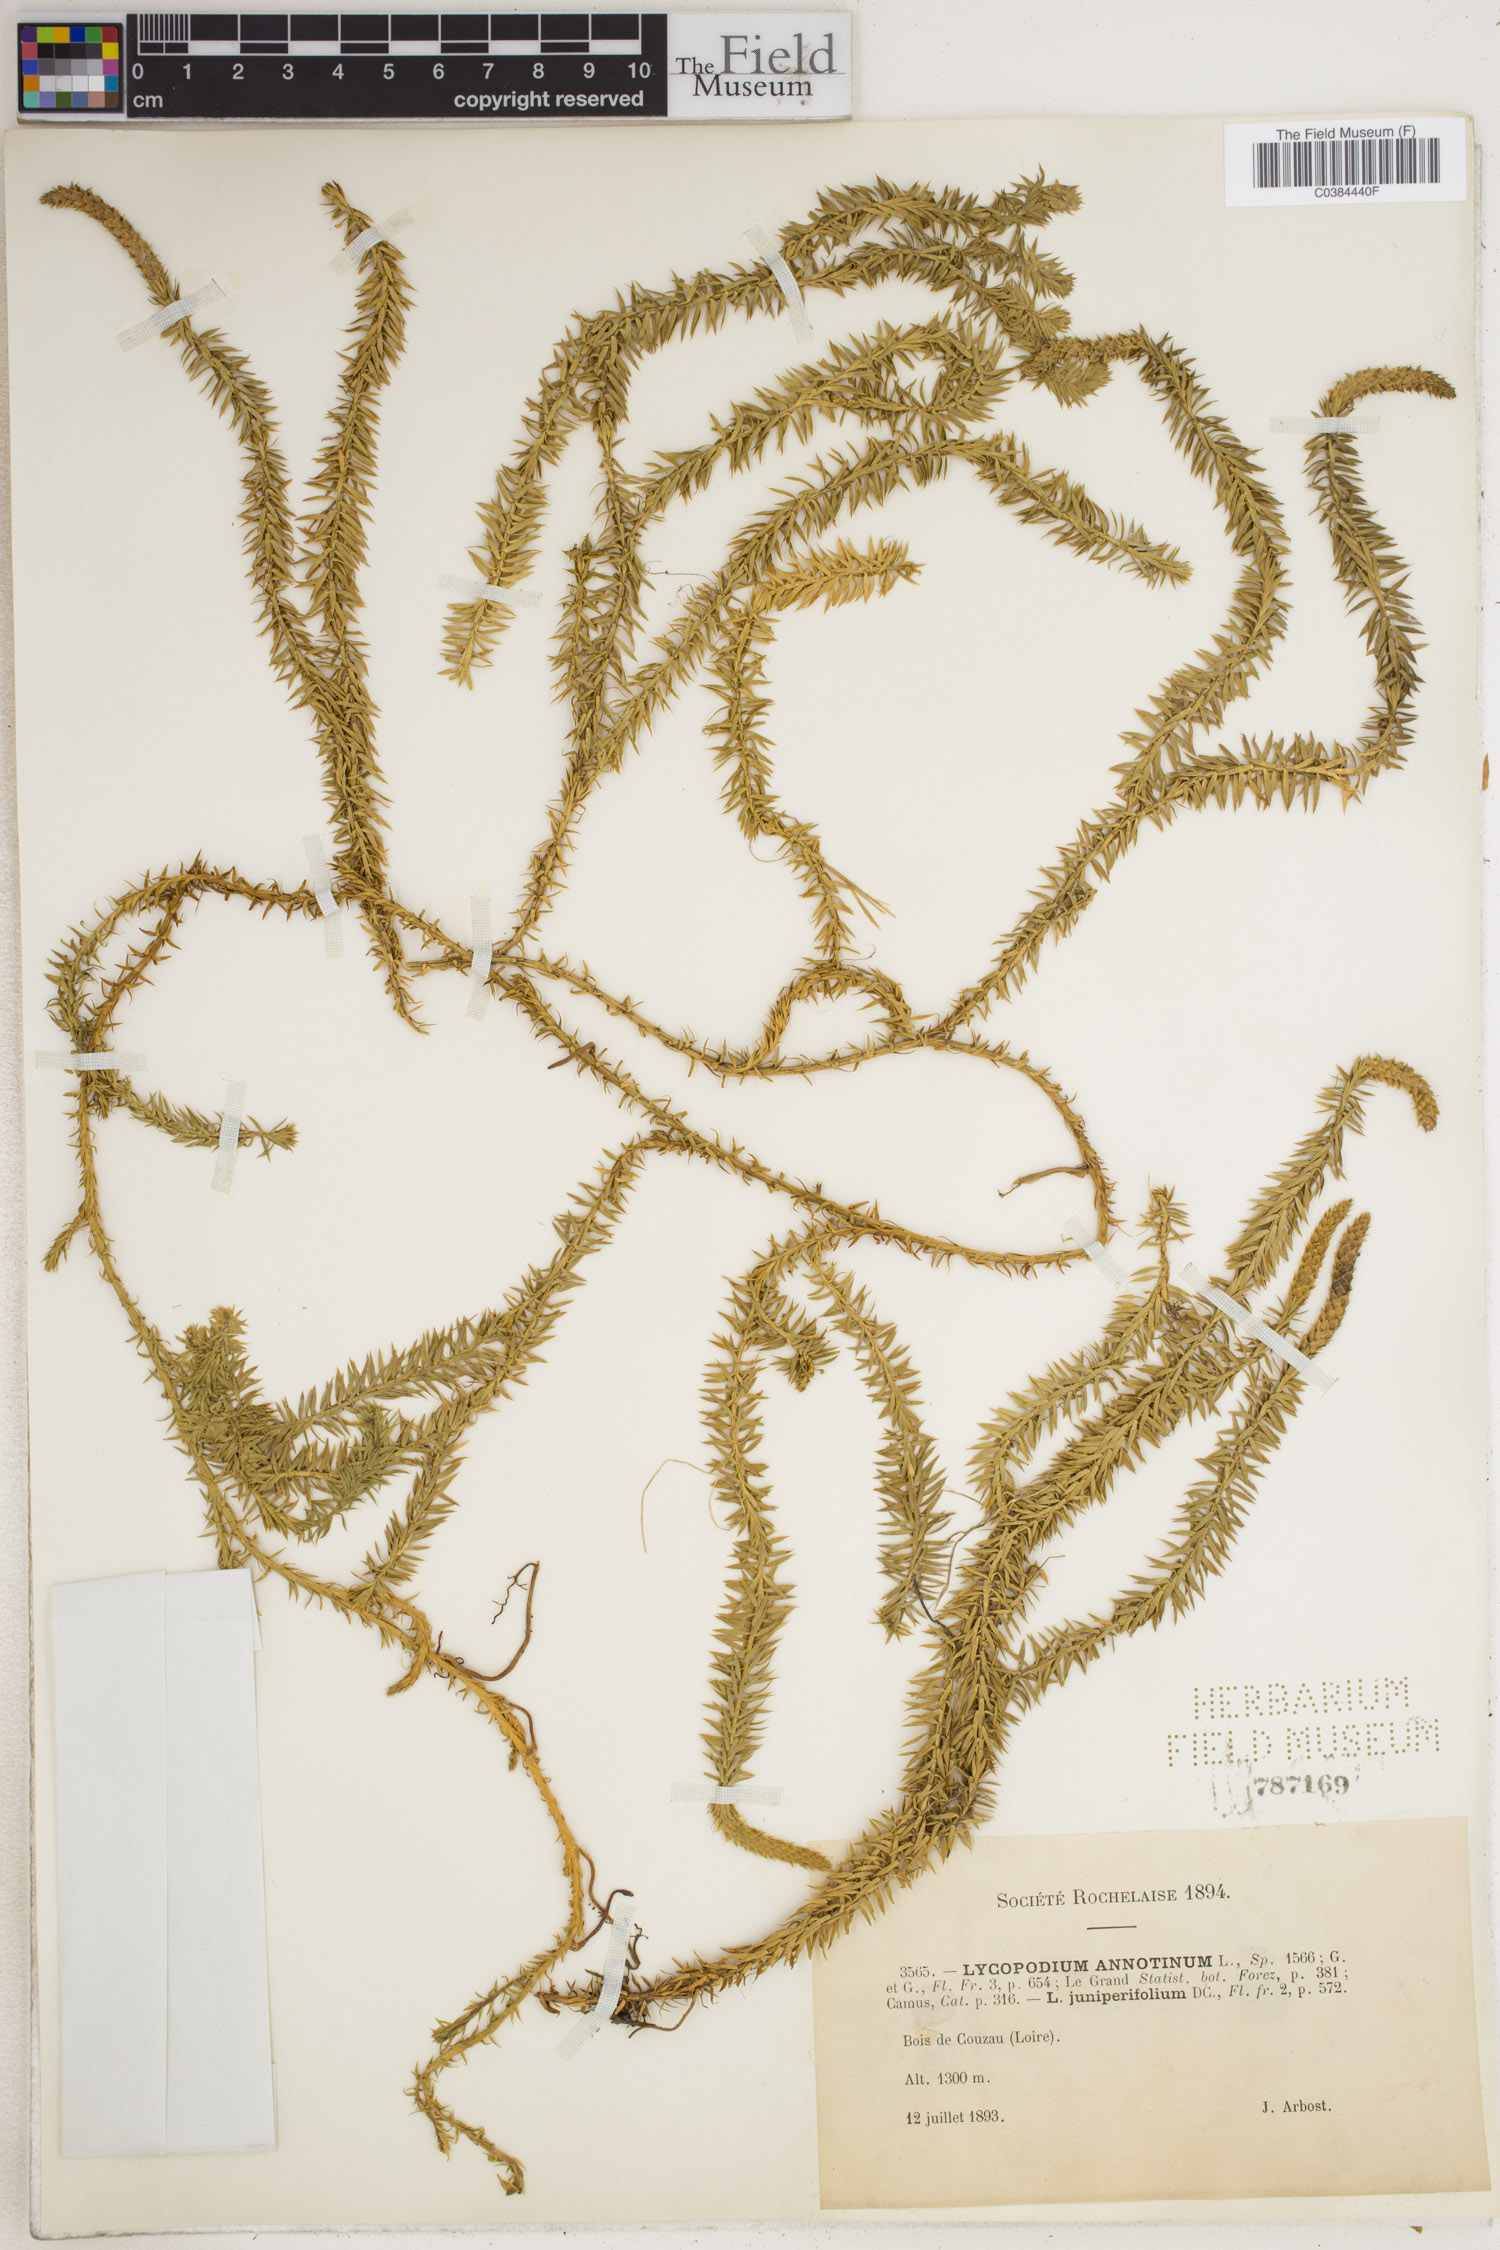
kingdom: Plantae
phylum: Tracheophyta
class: Lycopodiopsida
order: Lycopodiales
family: Lycopodiaceae
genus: Spinulum
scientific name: Spinulum annotinum
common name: Interrupted club-moss
